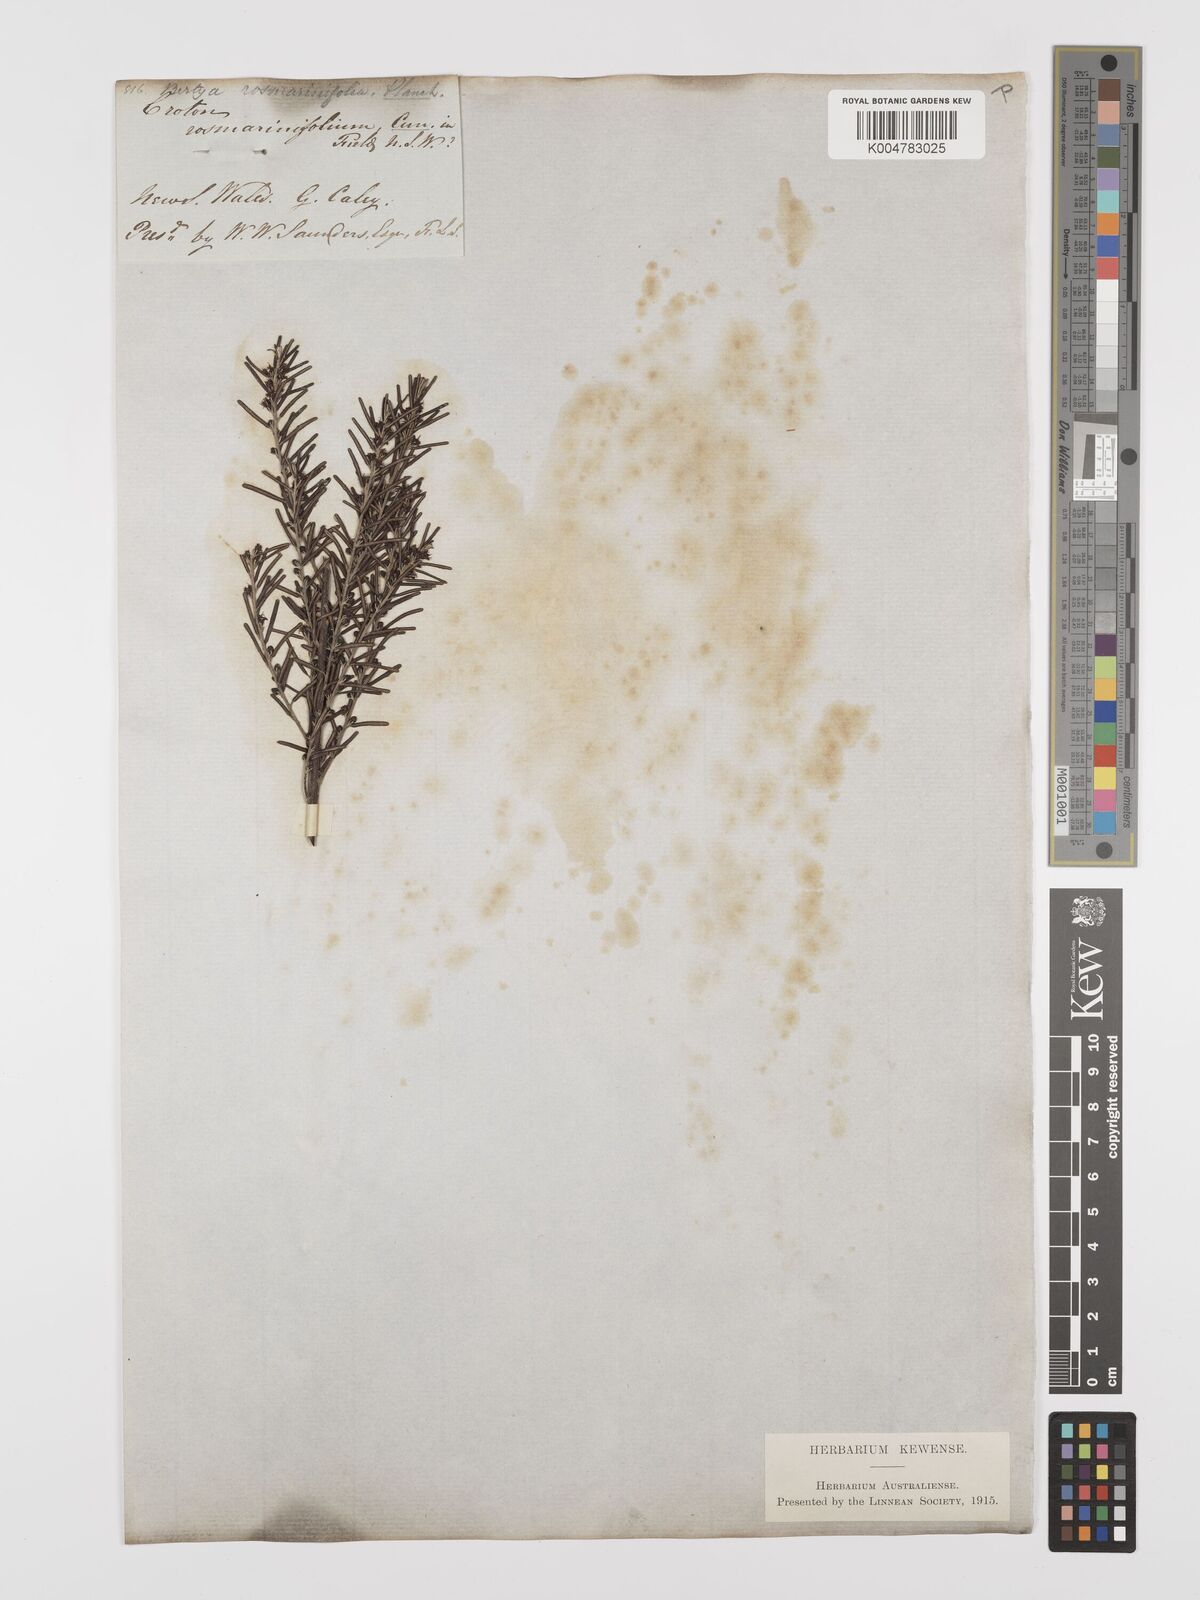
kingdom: Plantae
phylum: Tracheophyta
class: Magnoliopsida
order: Malpighiales
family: Euphorbiaceae
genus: Bertya
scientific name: Bertya rosmarinifolia
